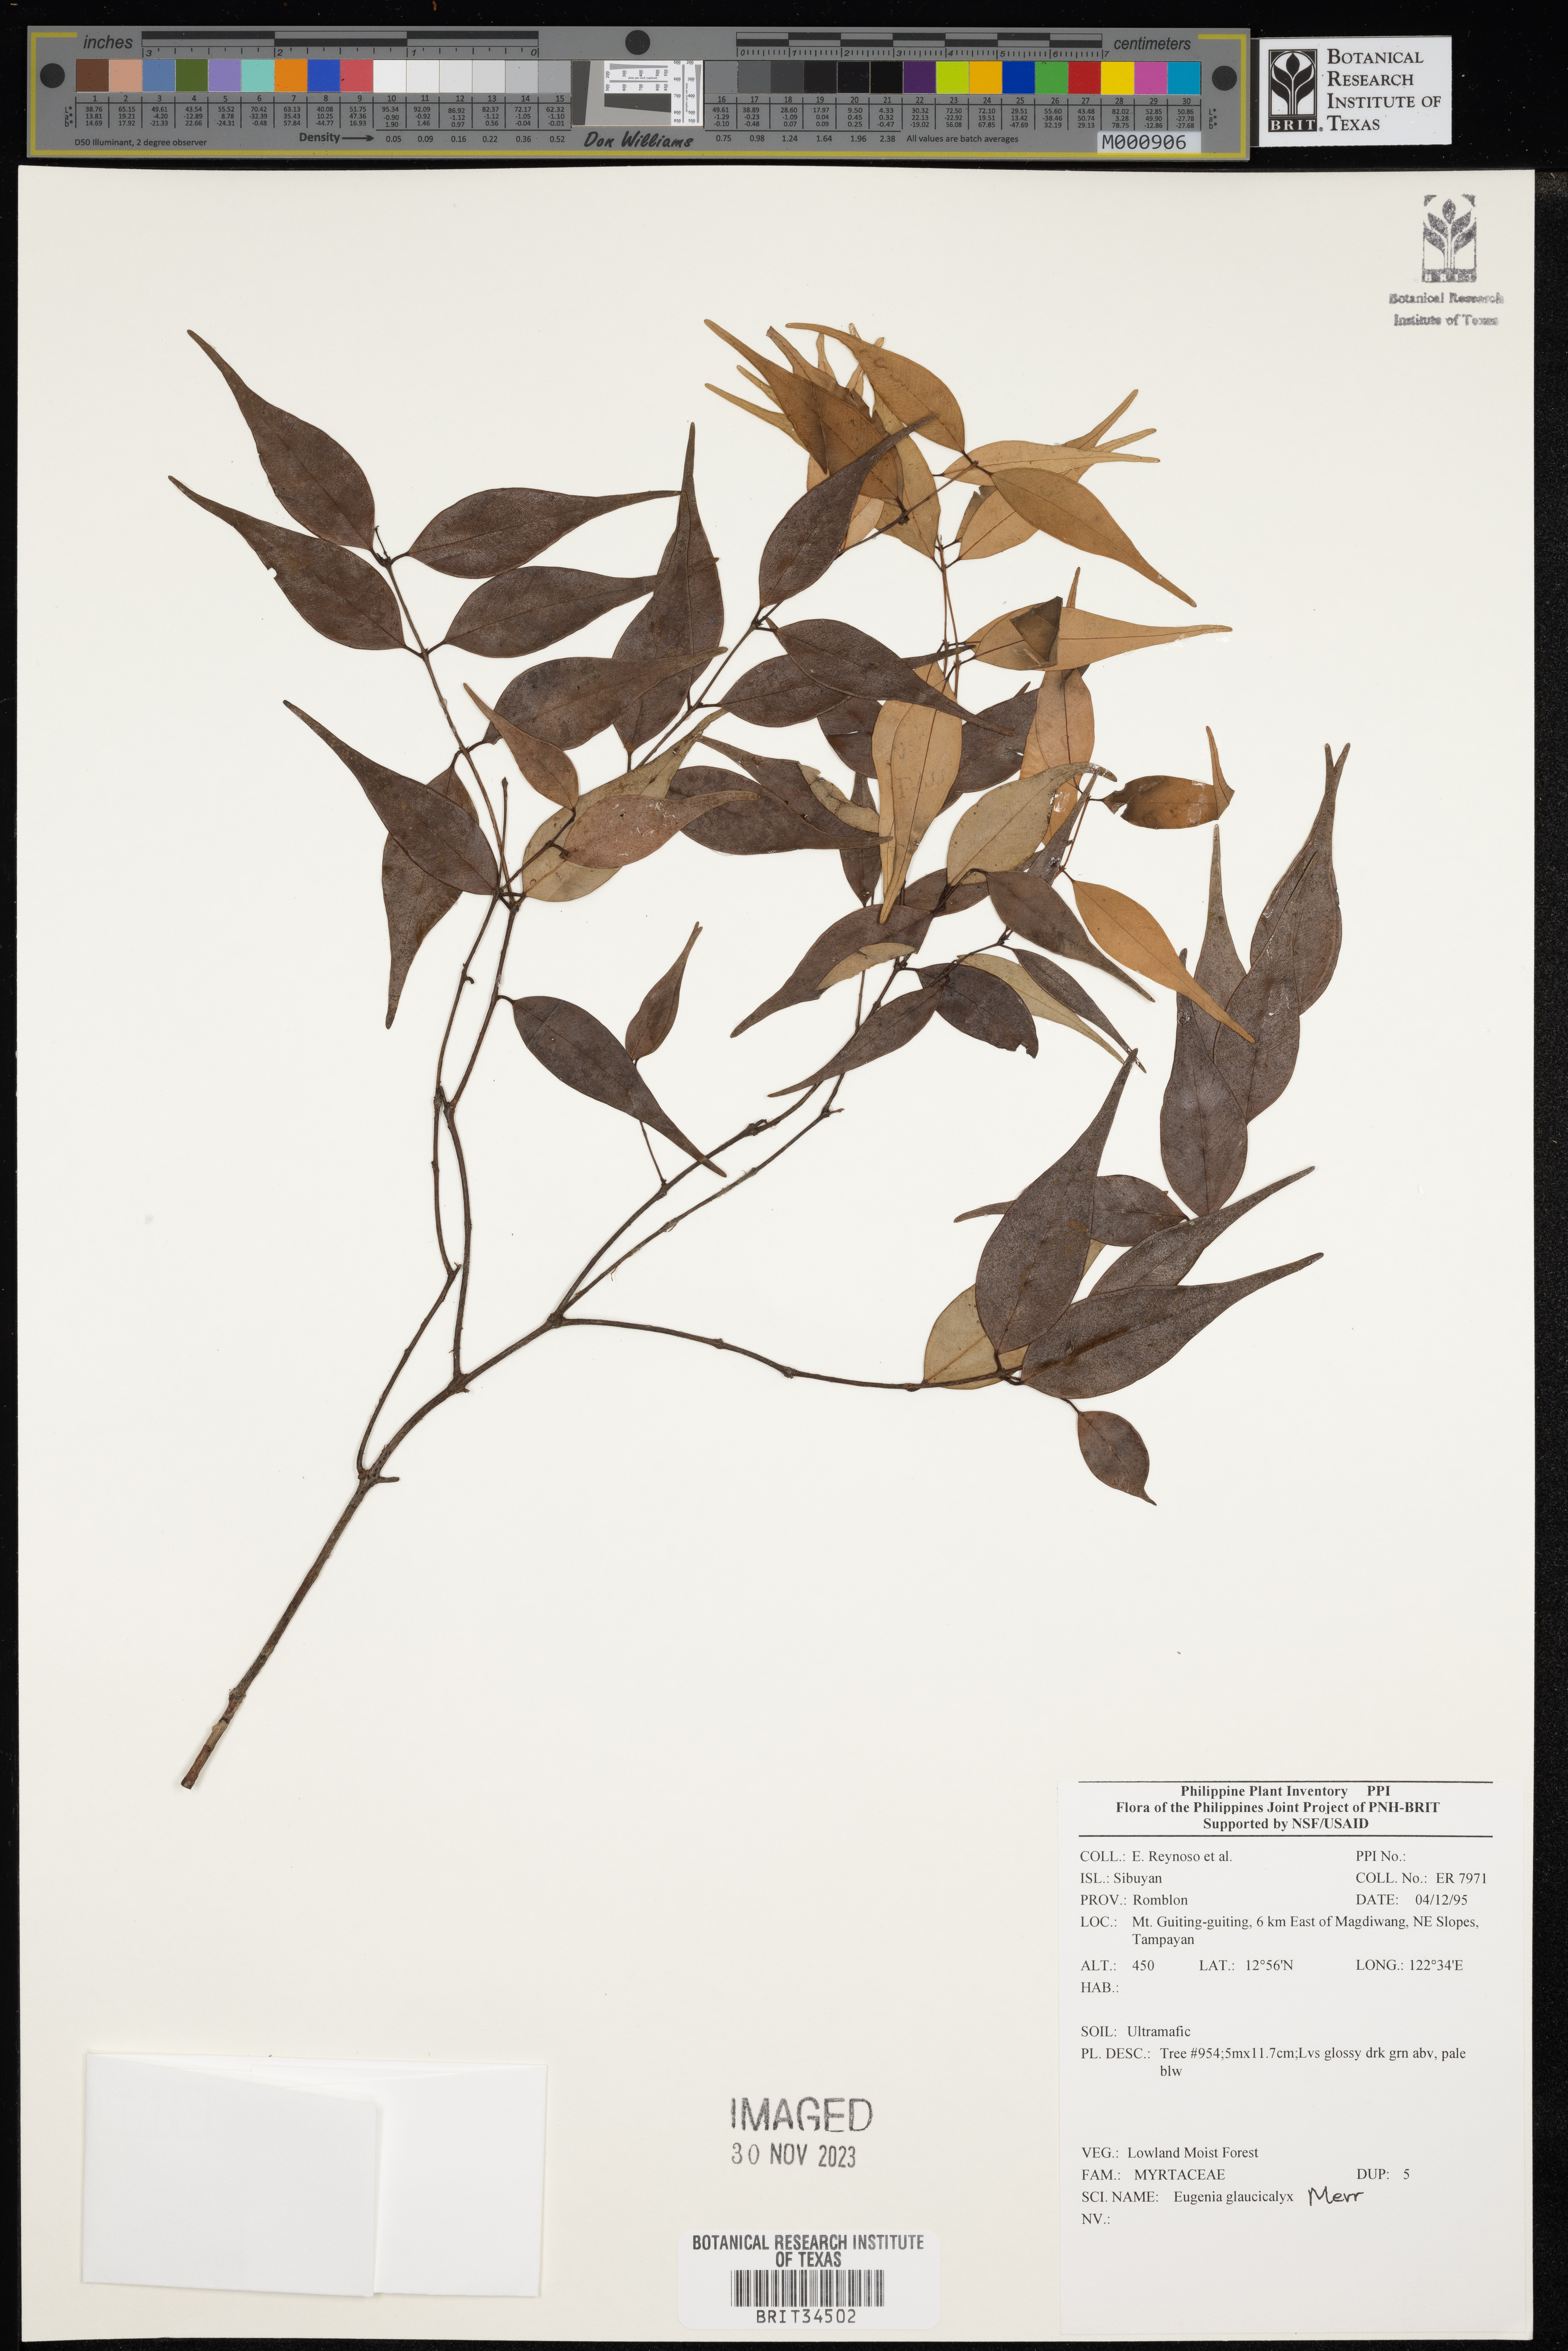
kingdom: Plantae
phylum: Tracheophyta
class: Magnoliopsida
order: Myrtales
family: Myrtaceae
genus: Eugenia
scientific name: Eugenia
